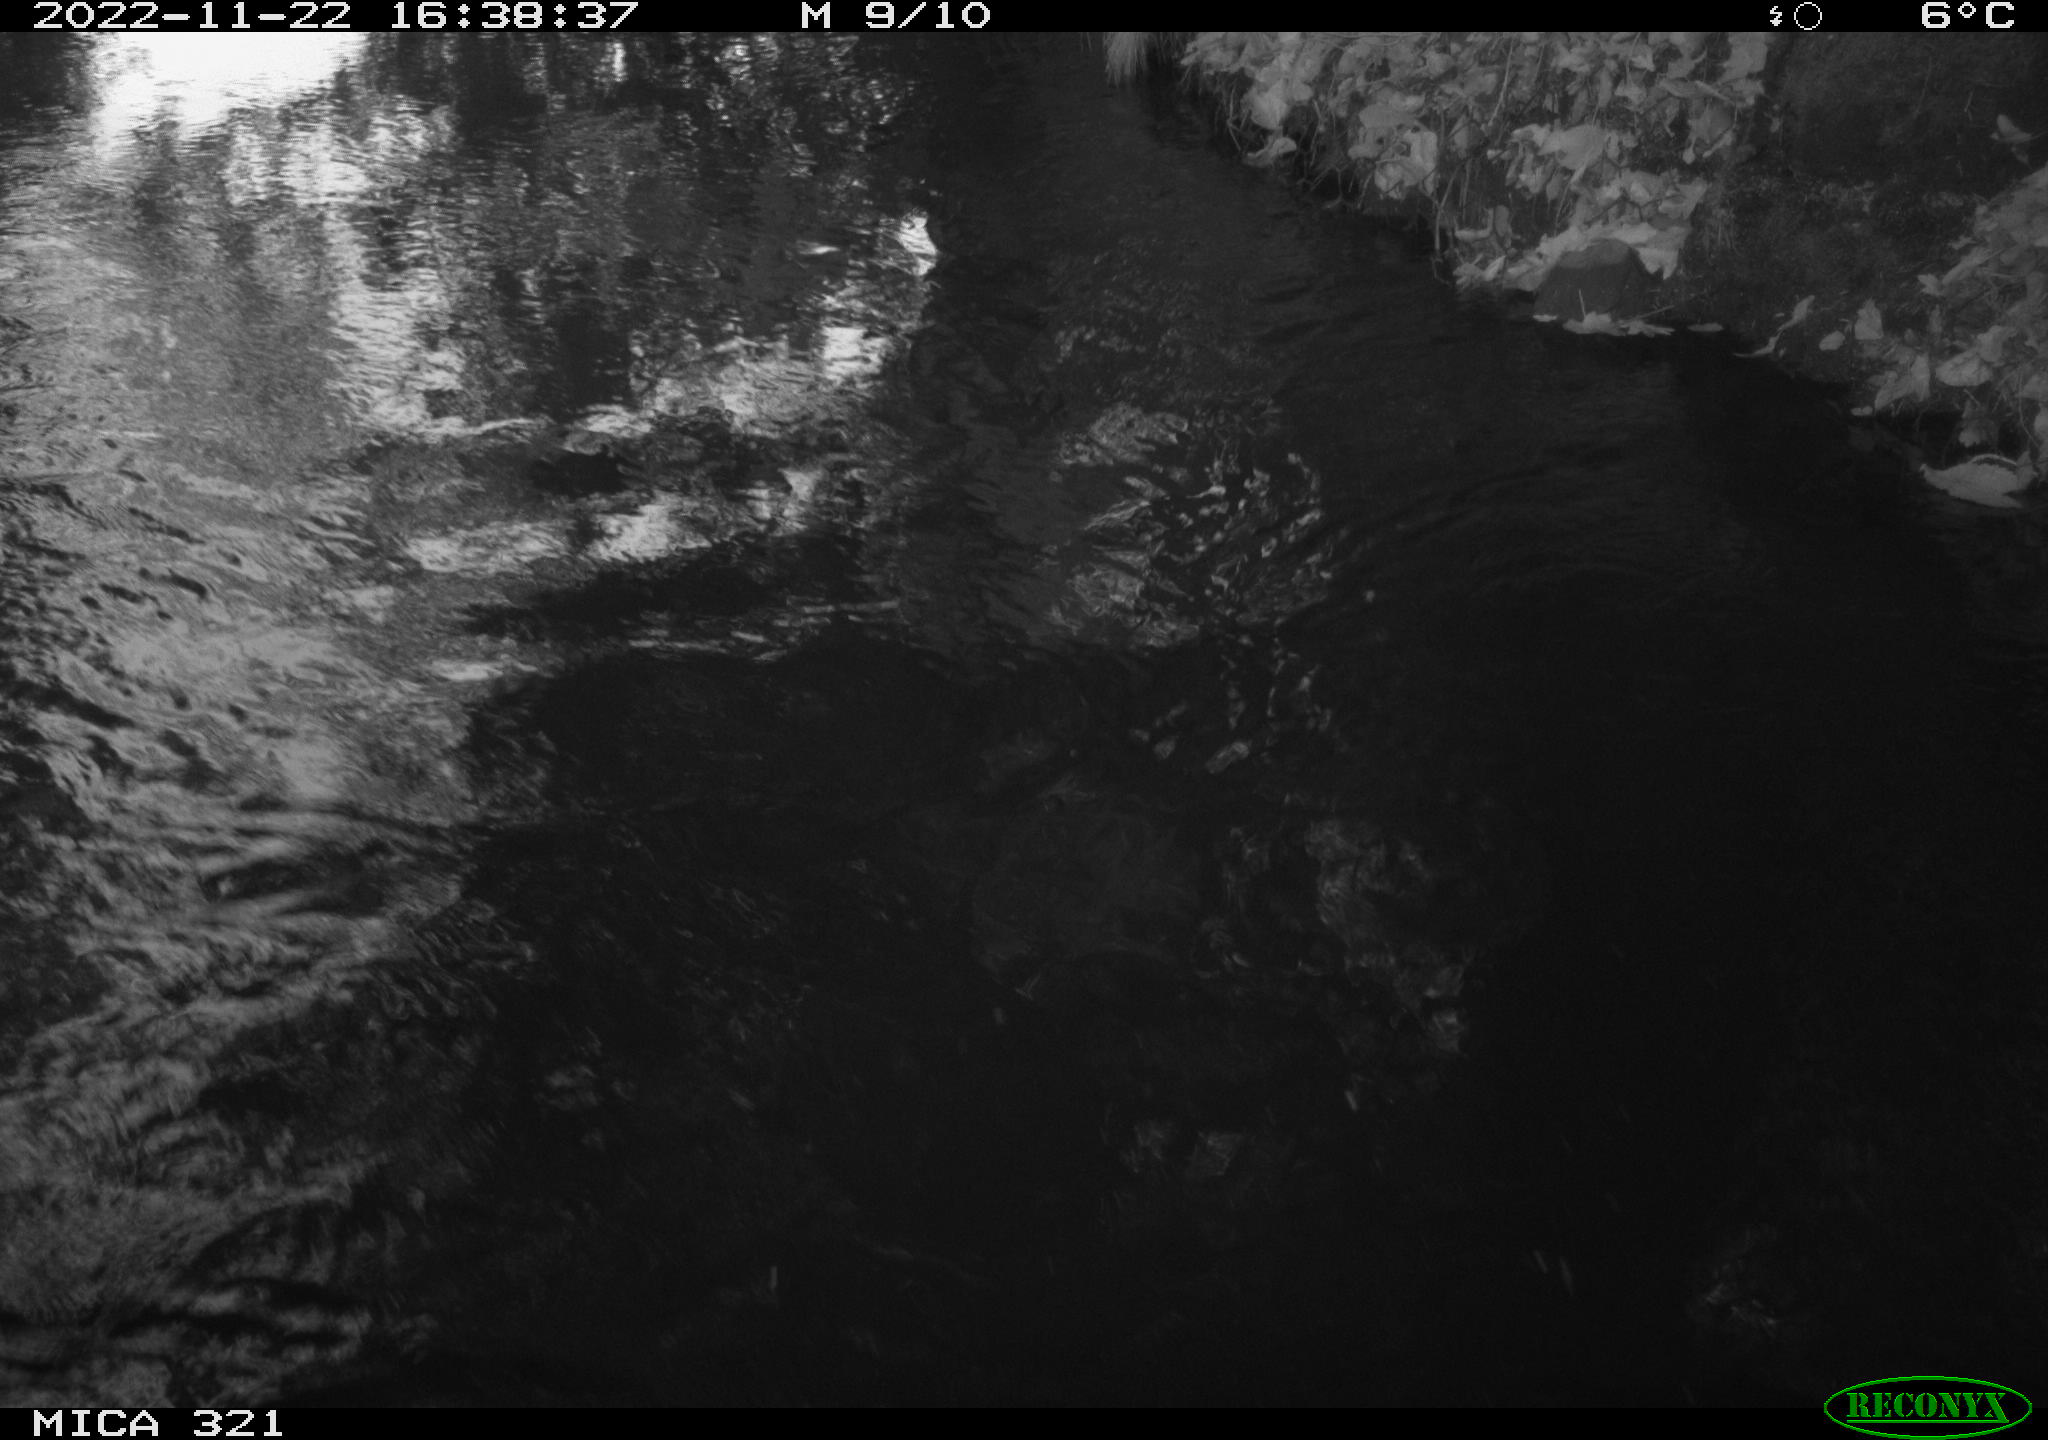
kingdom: Animalia
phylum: Chordata
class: Aves
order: Anseriformes
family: Anatidae
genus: Anas
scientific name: Anas
